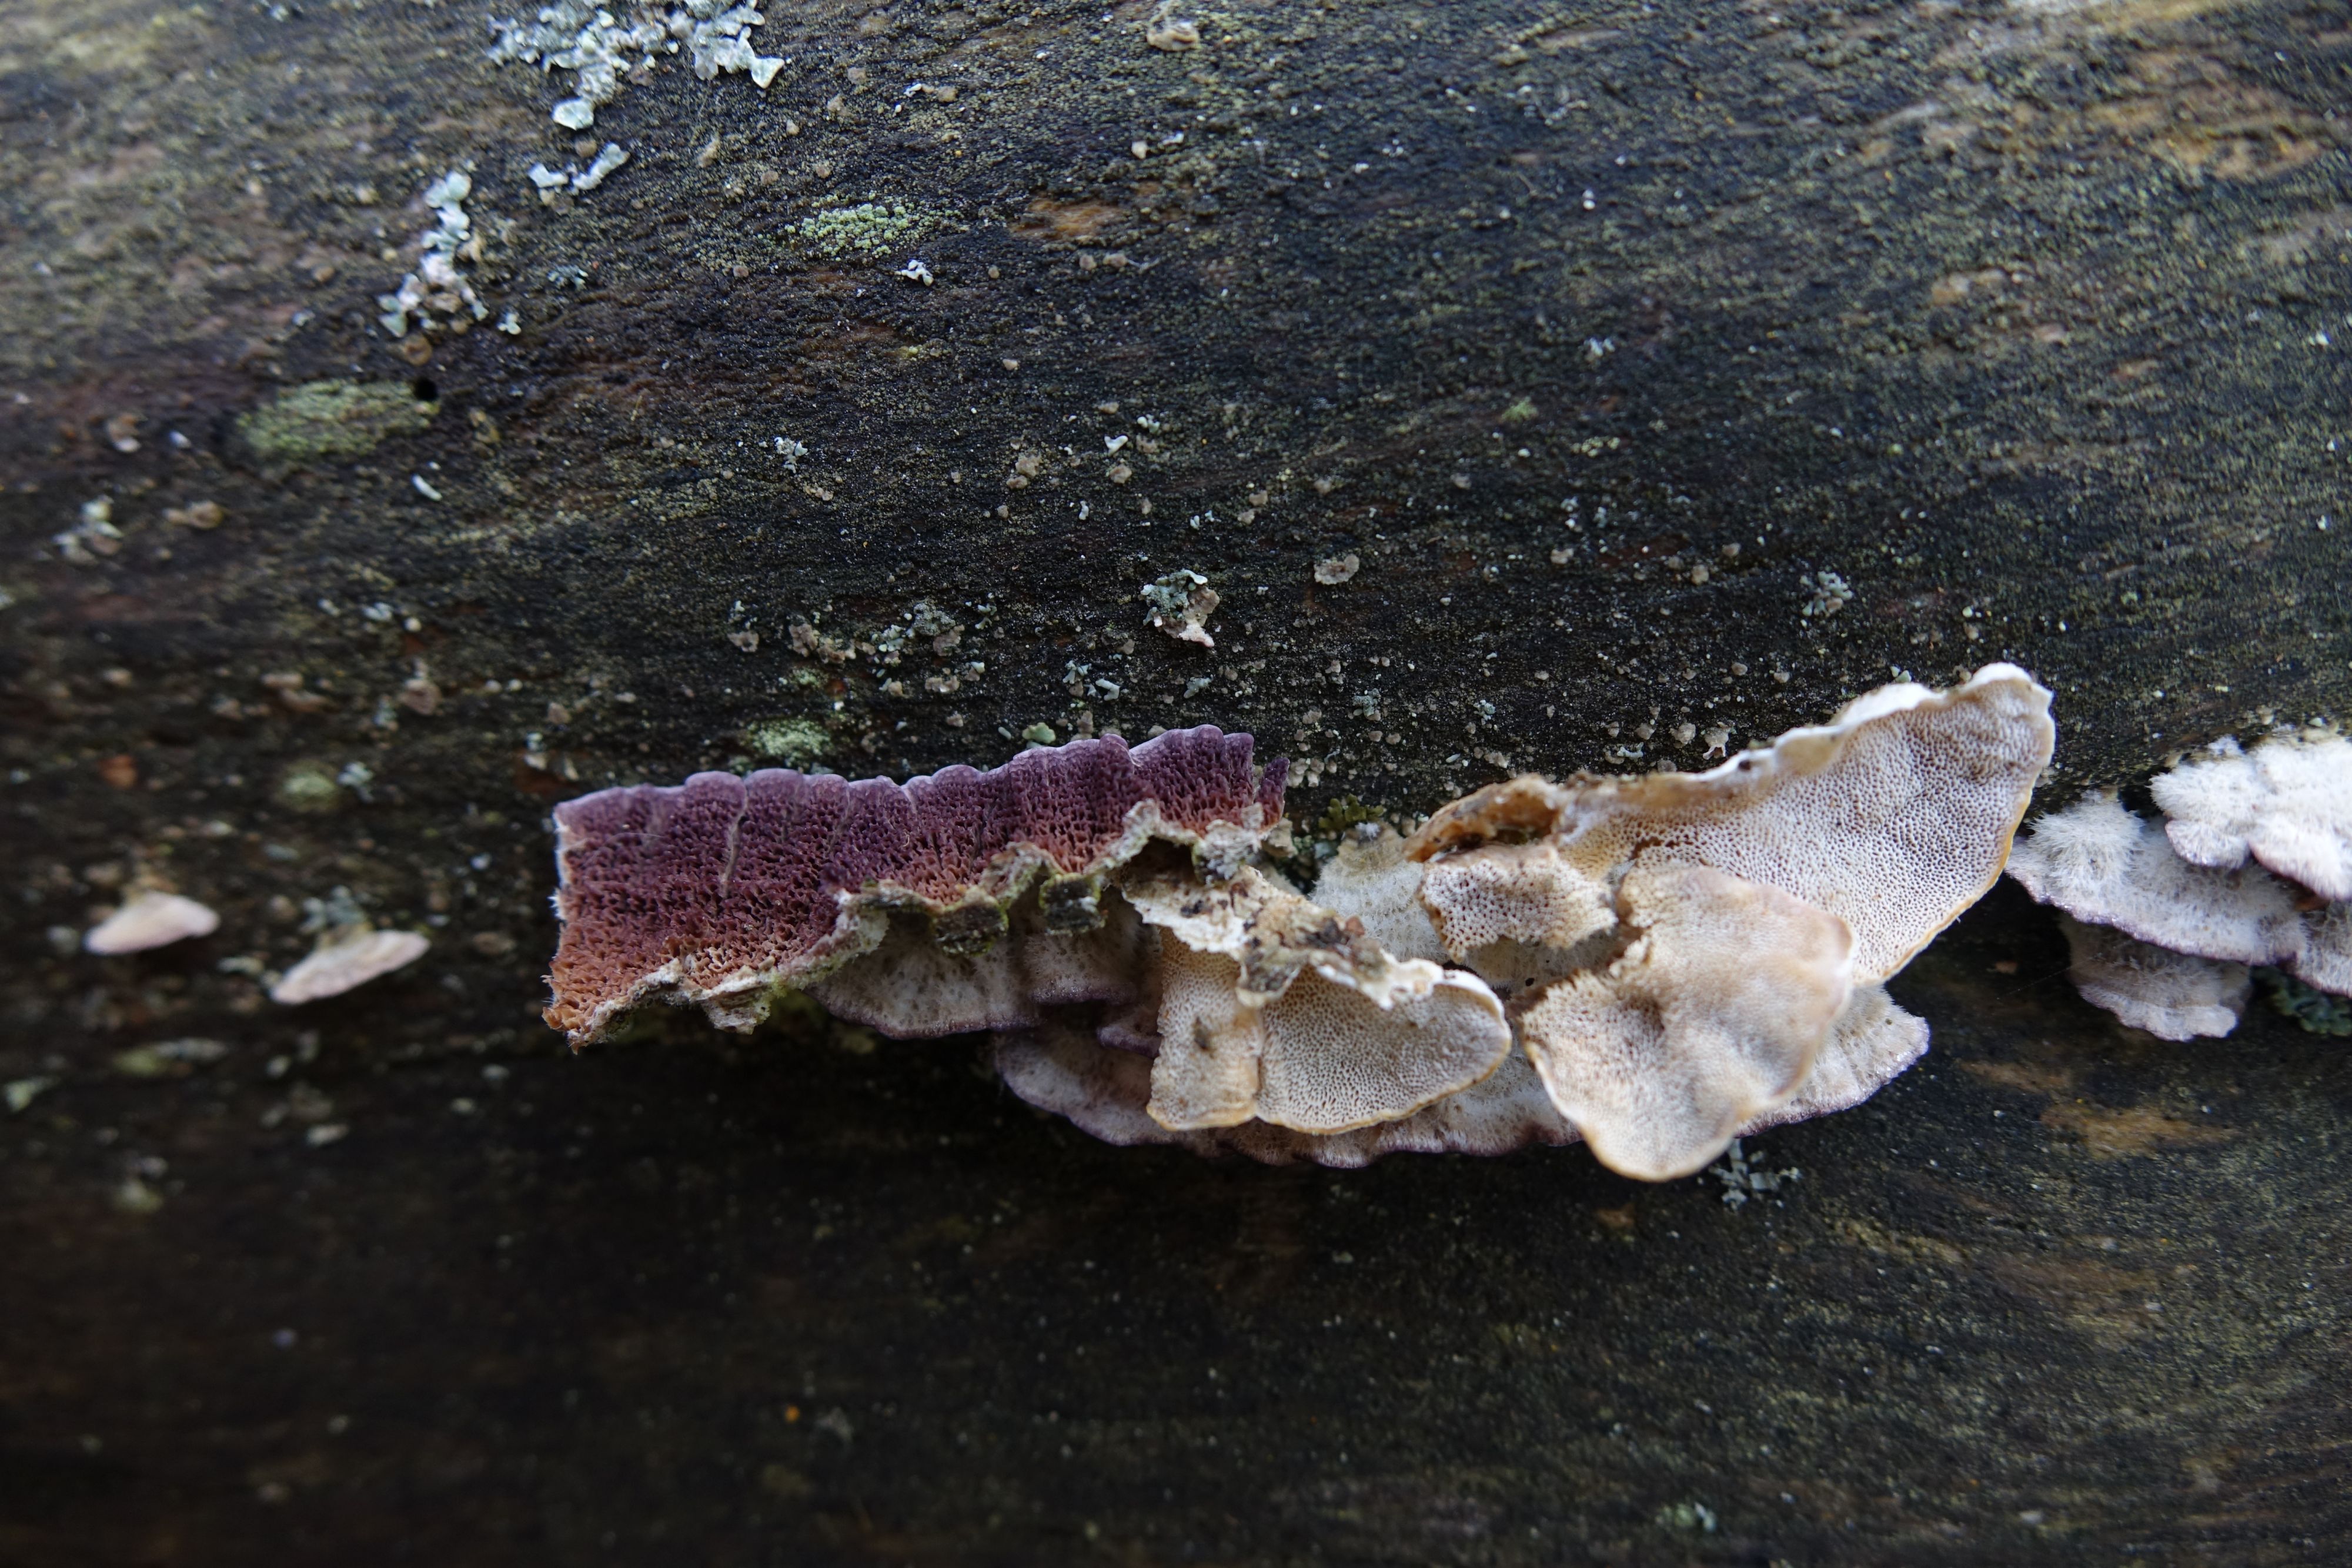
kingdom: Fungi
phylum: Basidiomycota
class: Agaricomycetes
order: Hymenochaetales
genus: Trichaptum
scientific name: Trichaptum abietinum
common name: Purplepore bracket
